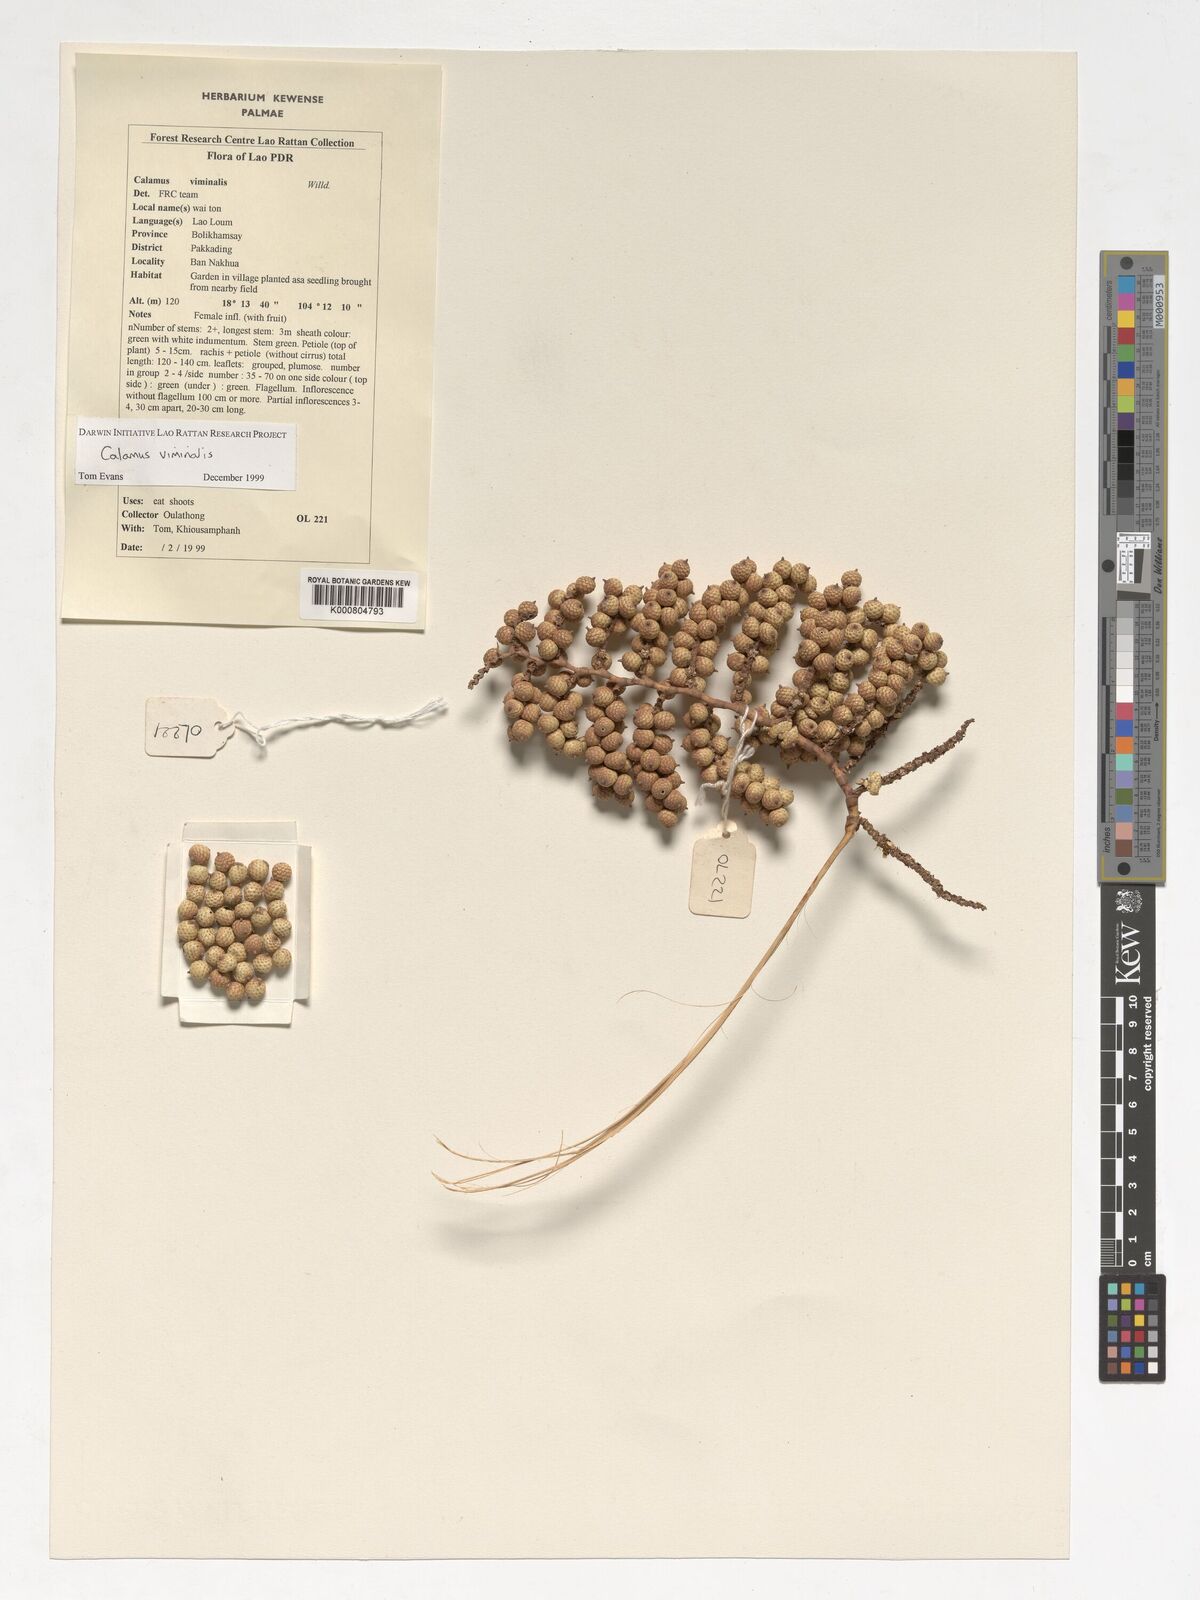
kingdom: Plantae
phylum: Tracheophyta
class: Liliopsida
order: Arecales
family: Arecaceae
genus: Calamus
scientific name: Calamus viminalis
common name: Osier-like rattan palm
